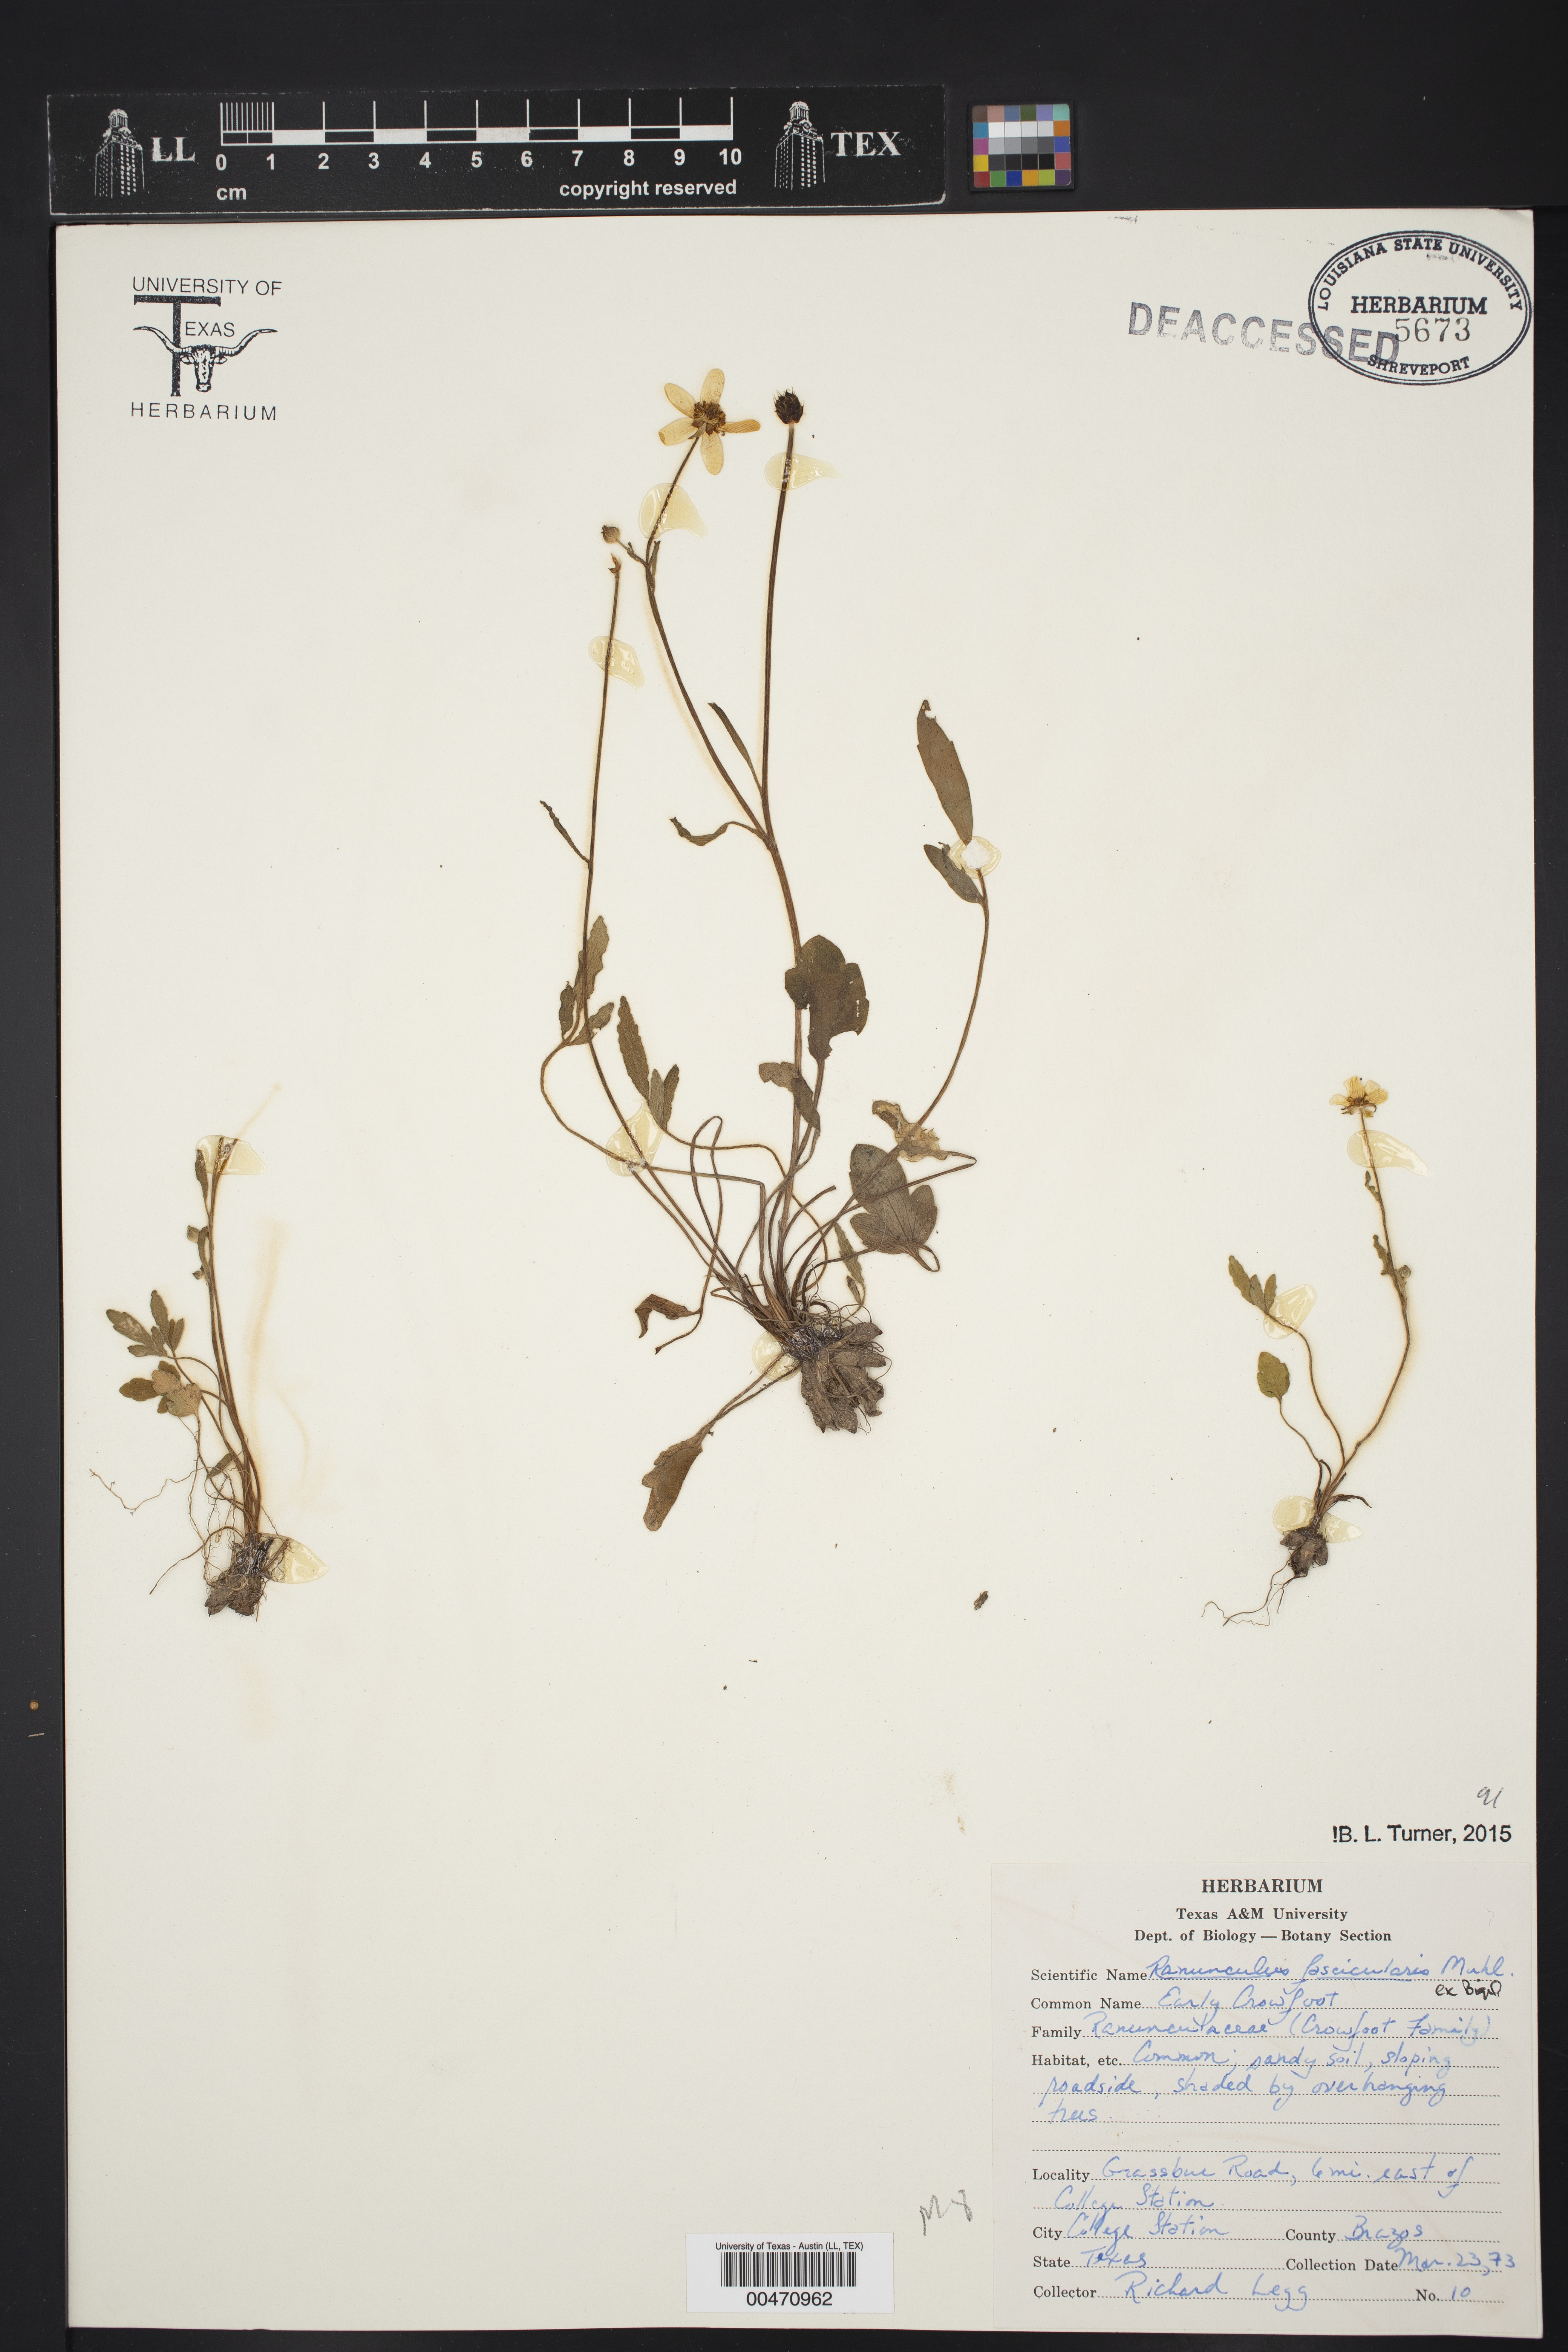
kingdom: Plantae
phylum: Tracheophyta
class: Magnoliopsida
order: Ranunculales
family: Ranunculaceae
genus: Ranunculus
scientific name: Ranunculus fascicularis
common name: Early buttercup
